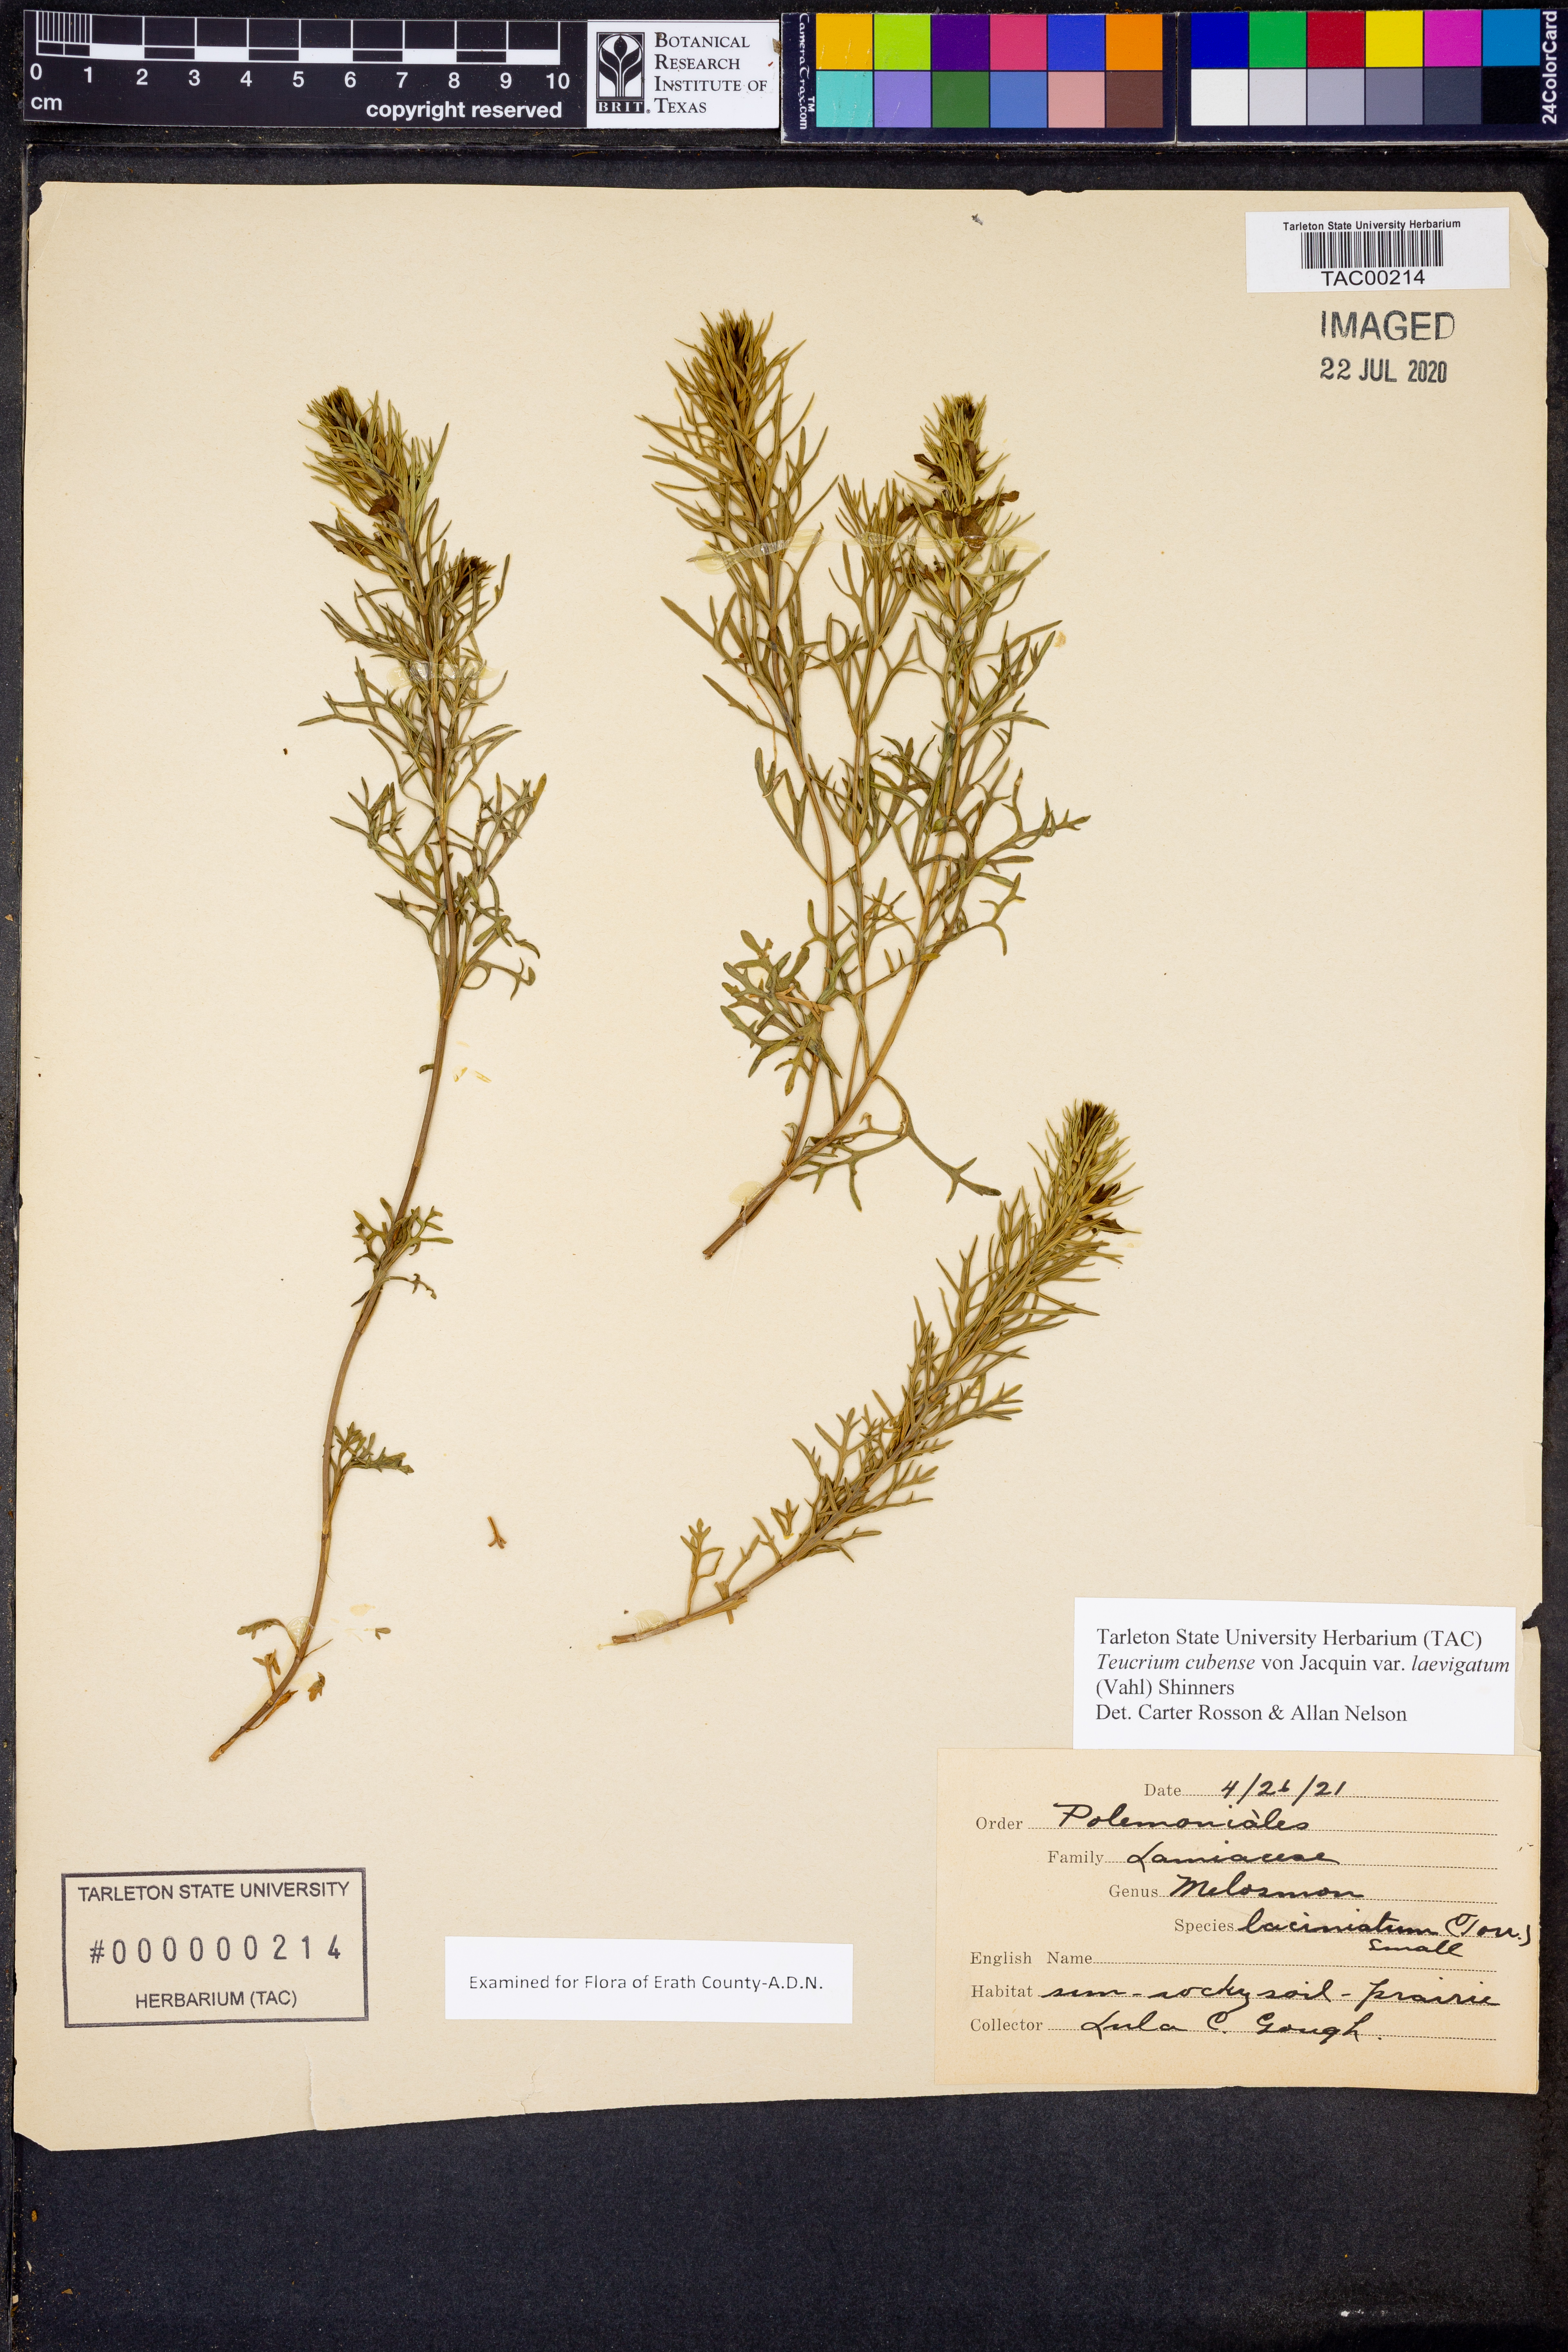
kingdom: Plantae
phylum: Tracheophyta
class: Magnoliopsida
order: Lamiales
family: Lamiaceae
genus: Teucrium
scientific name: Teucrium cubense
